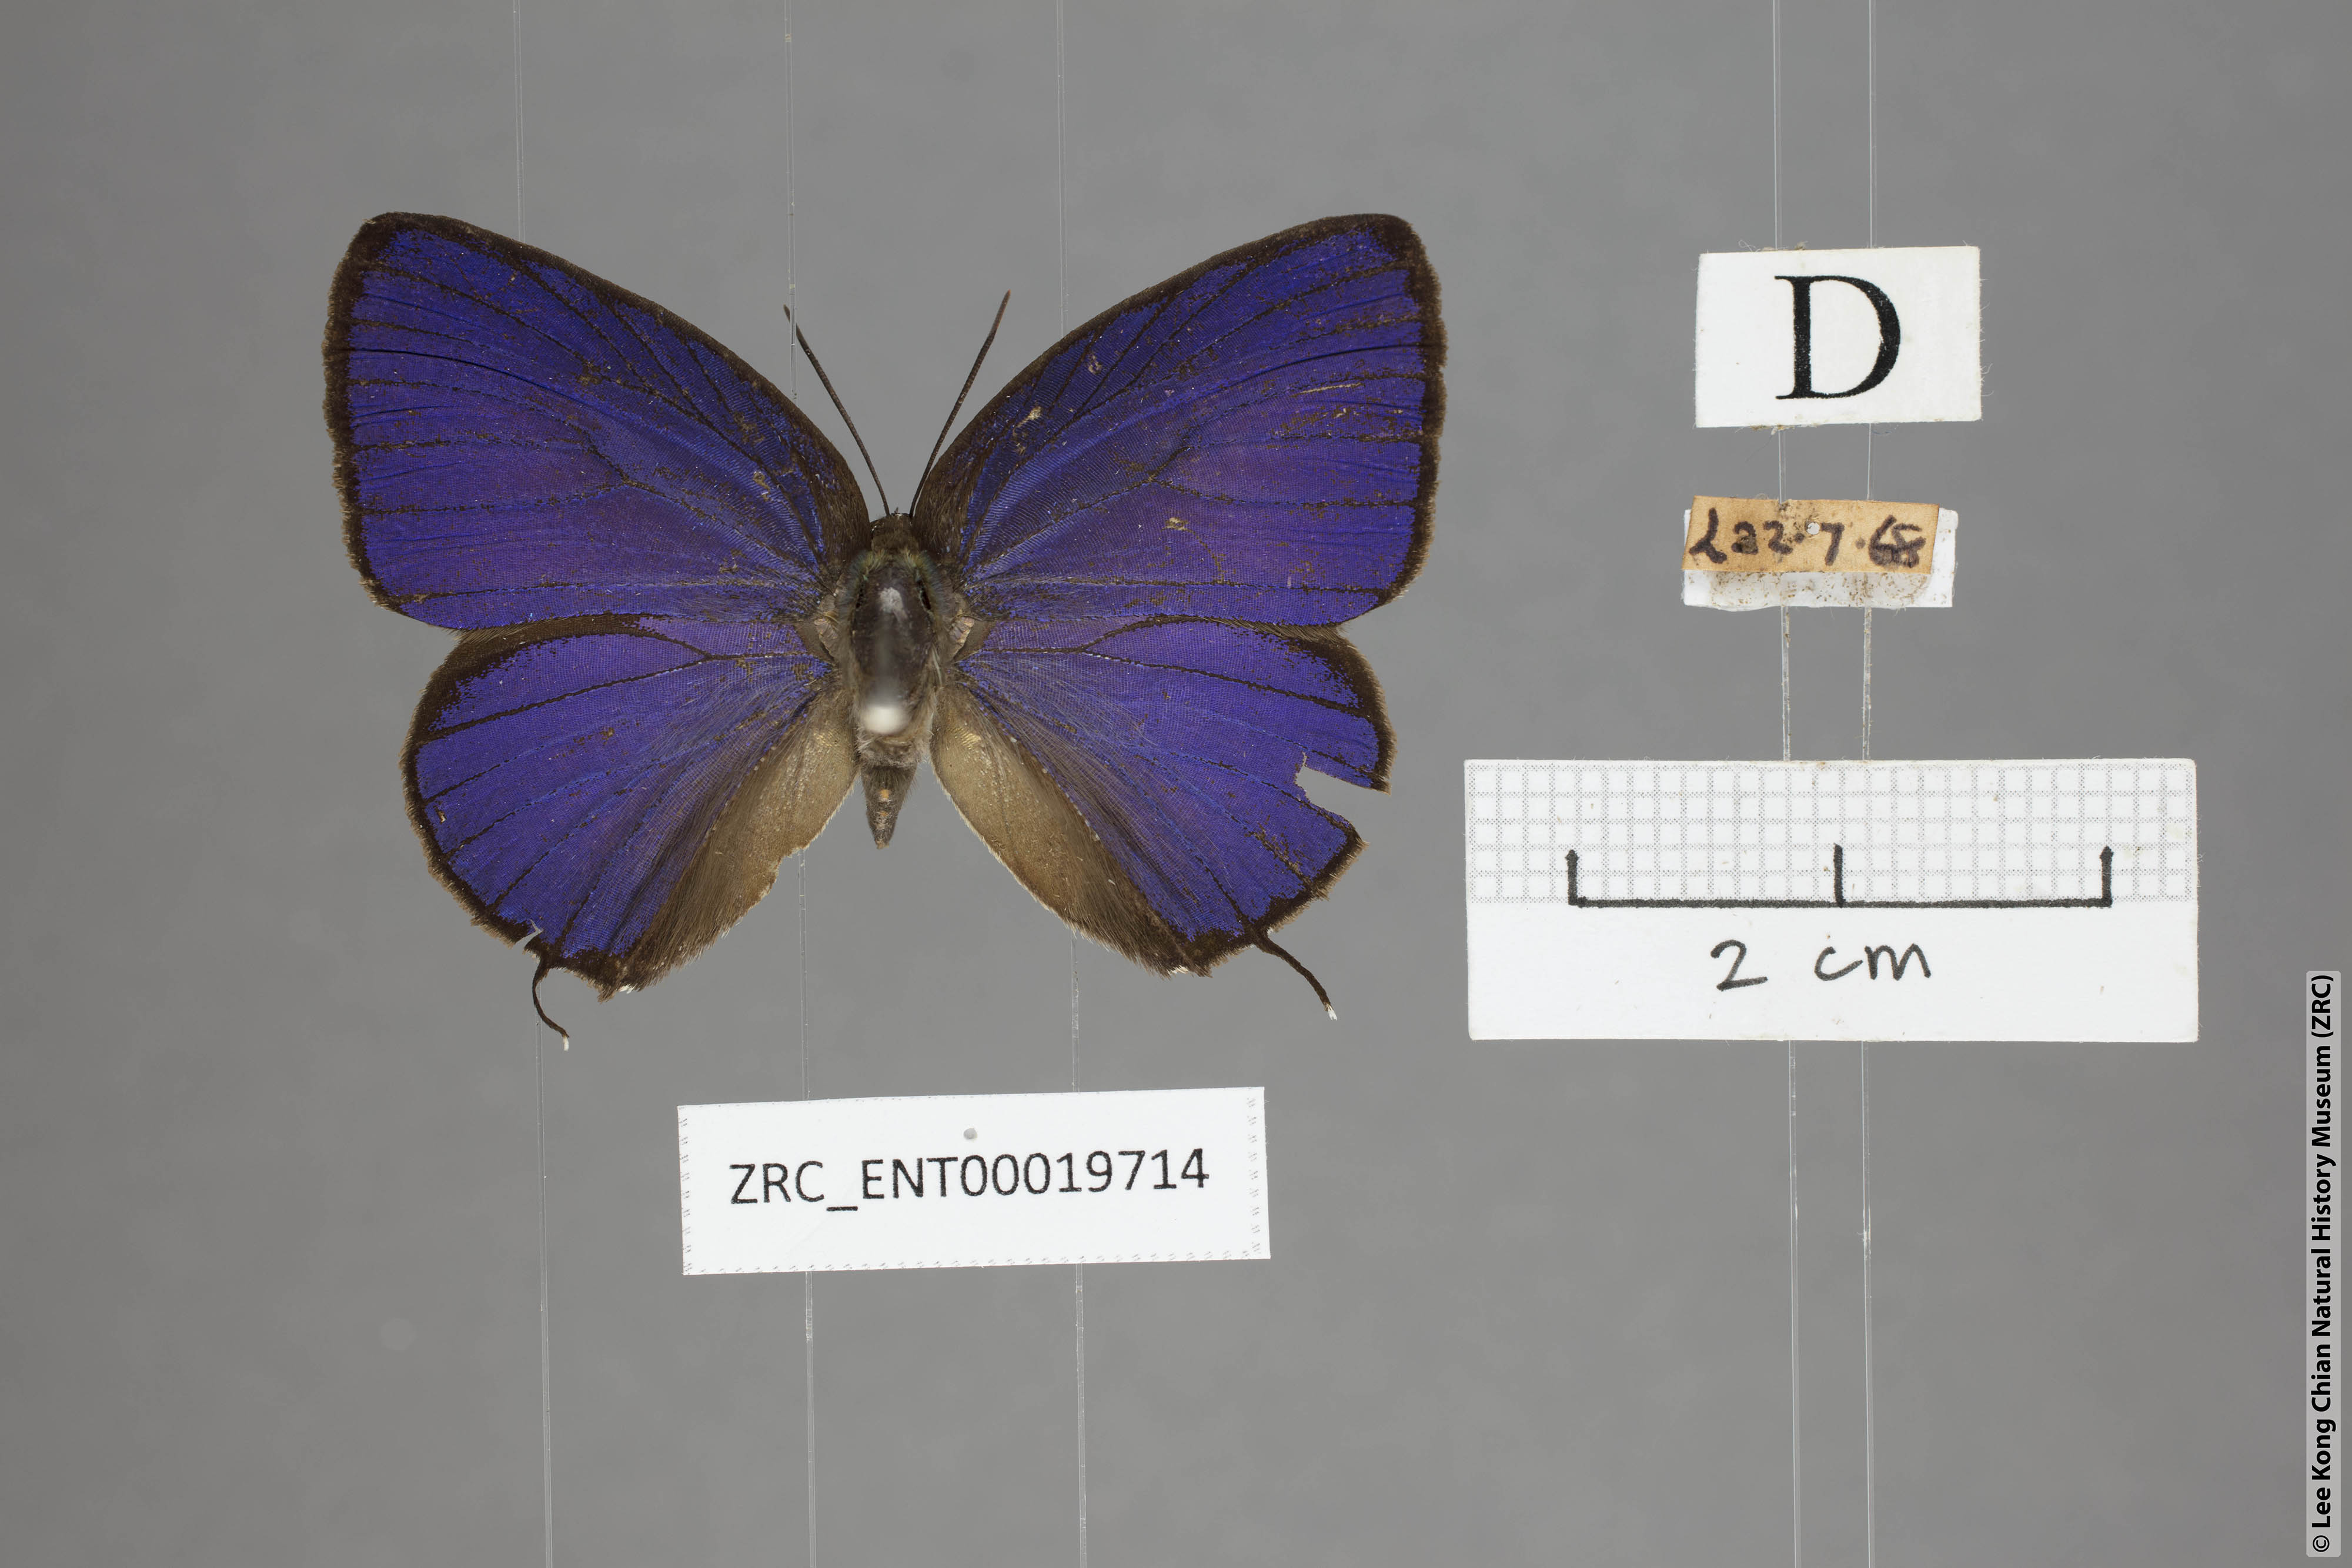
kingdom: Animalia
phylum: Arthropoda
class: Insecta
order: Lepidoptera
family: Lycaenidae
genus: Arhopala
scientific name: Arhopala myrzala
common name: Malayan oakblue
